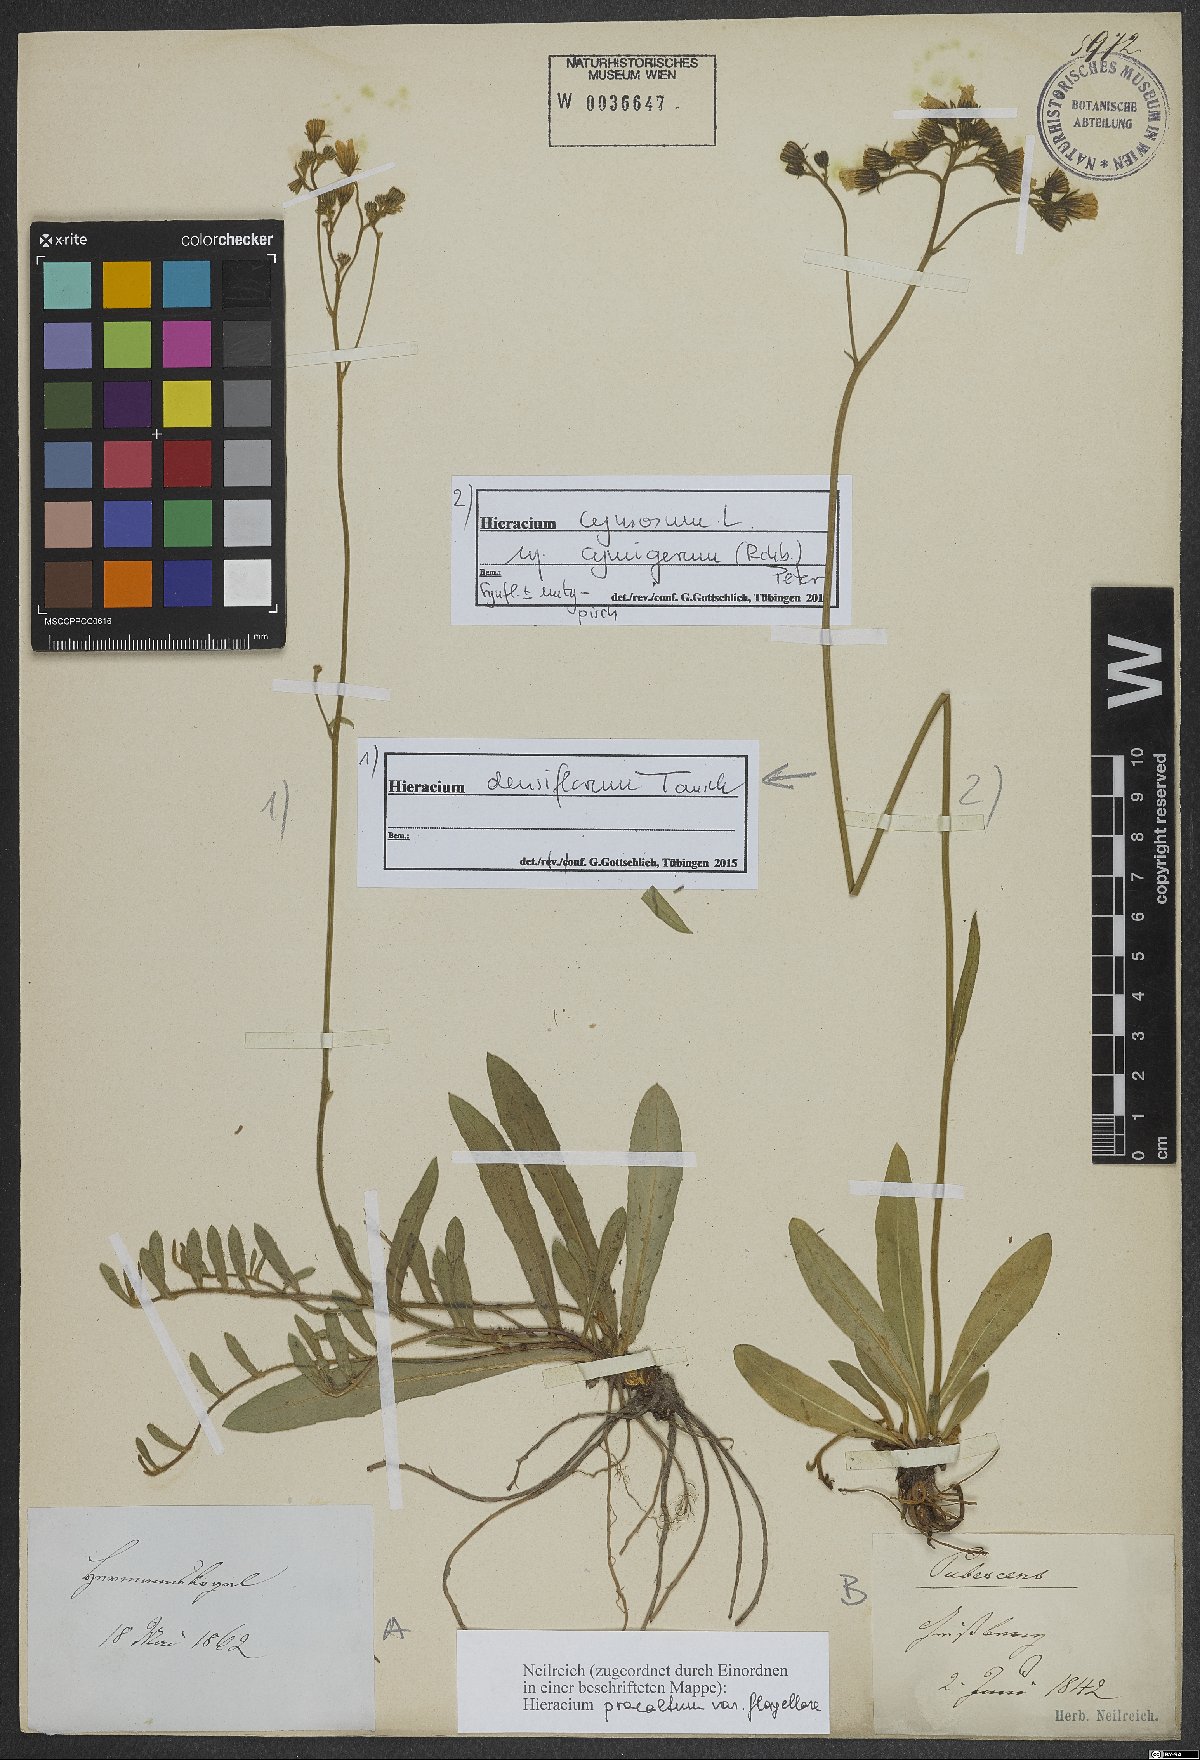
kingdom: Plantae
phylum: Tracheophyta
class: Magnoliopsida
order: Asterales
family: Asteraceae
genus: Pilosella
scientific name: Pilosella cymosa
